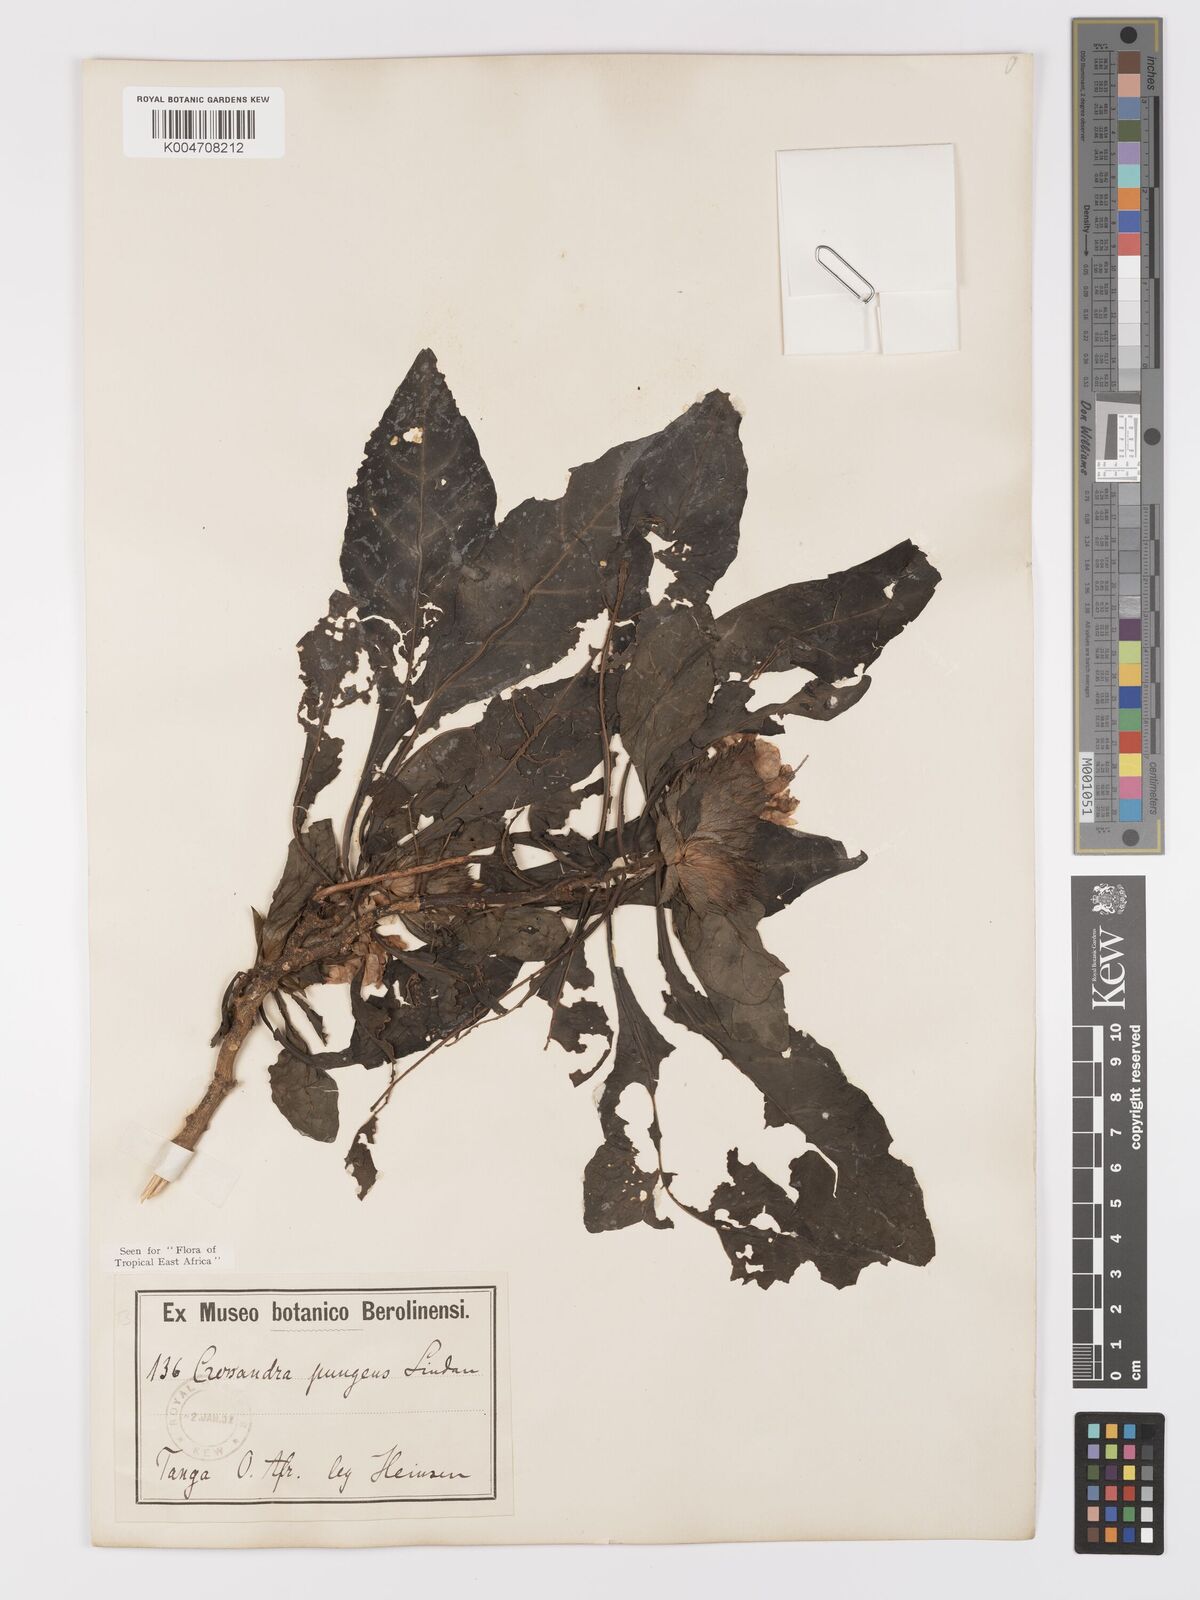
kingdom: Plantae
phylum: Tracheophyta
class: Magnoliopsida
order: Lamiales
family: Acanthaceae
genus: Crossandra
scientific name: Crossandra pungens
